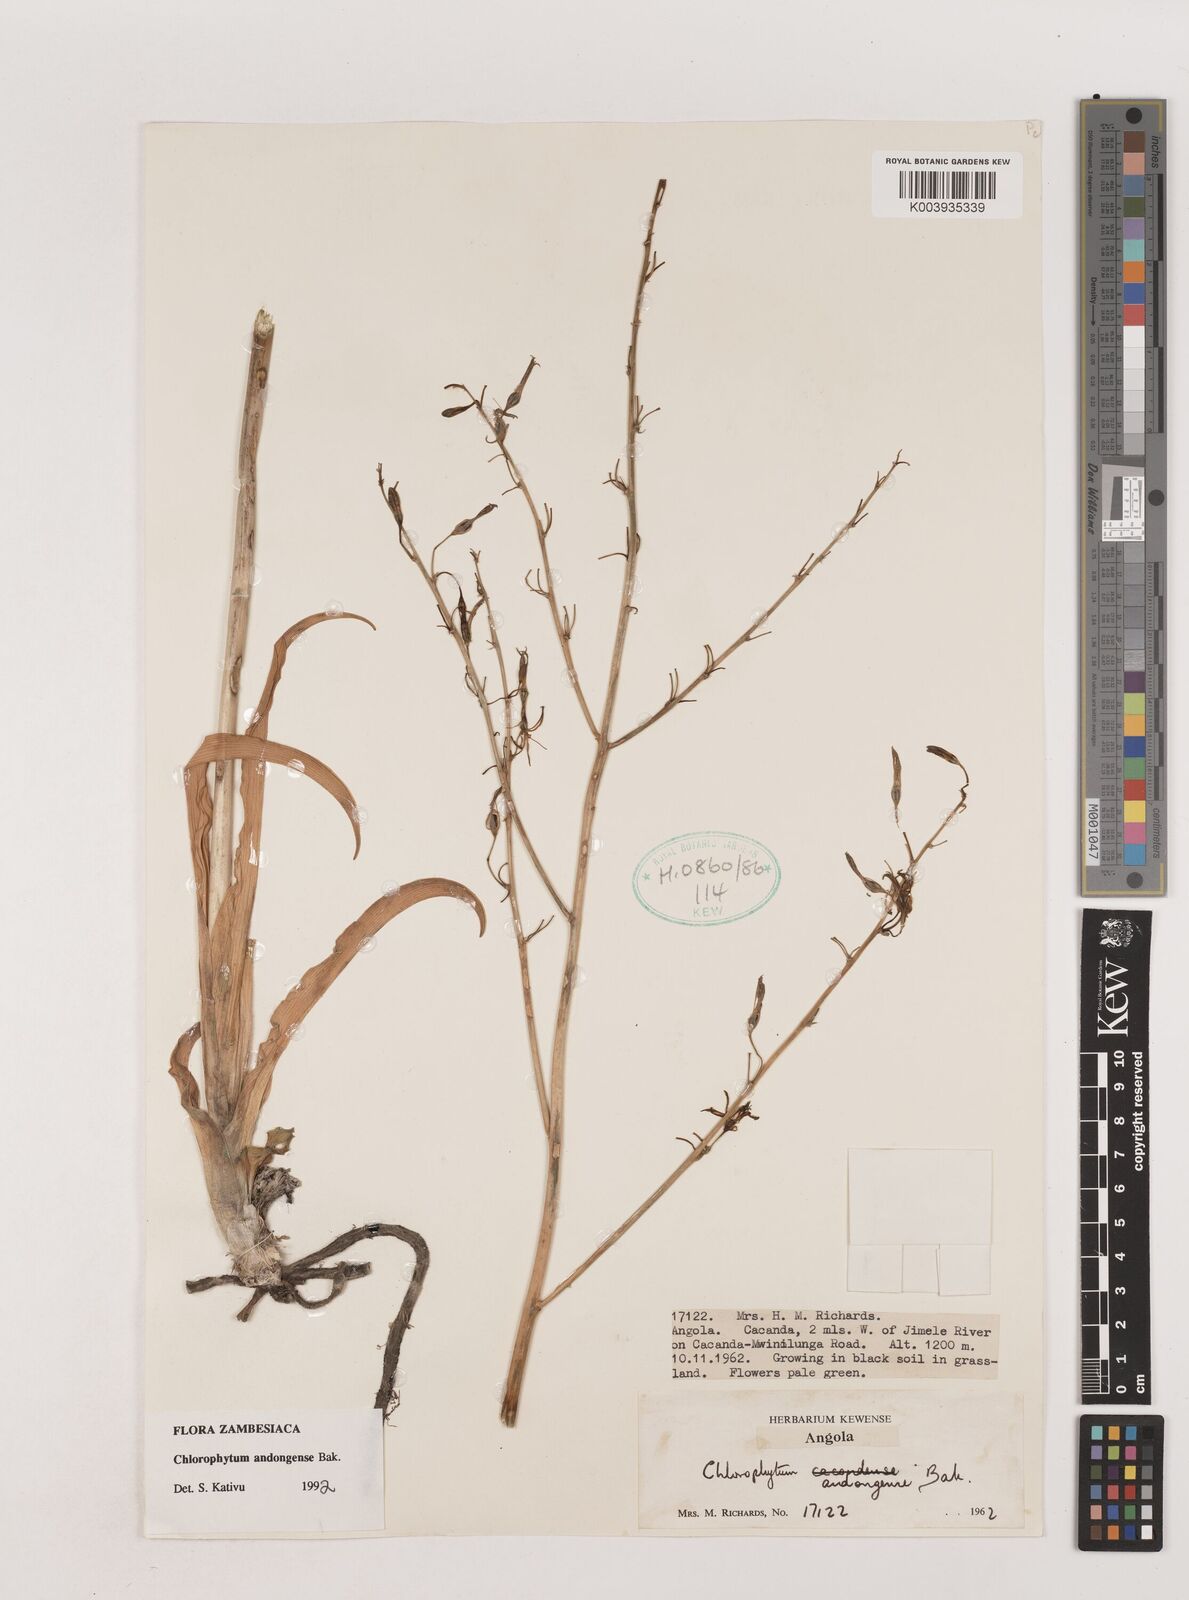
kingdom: Plantae
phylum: Tracheophyta
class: Liliopsida
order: Asparagales
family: Asparagaceae
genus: Chlorophytum
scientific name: Chlorophytum andongense
